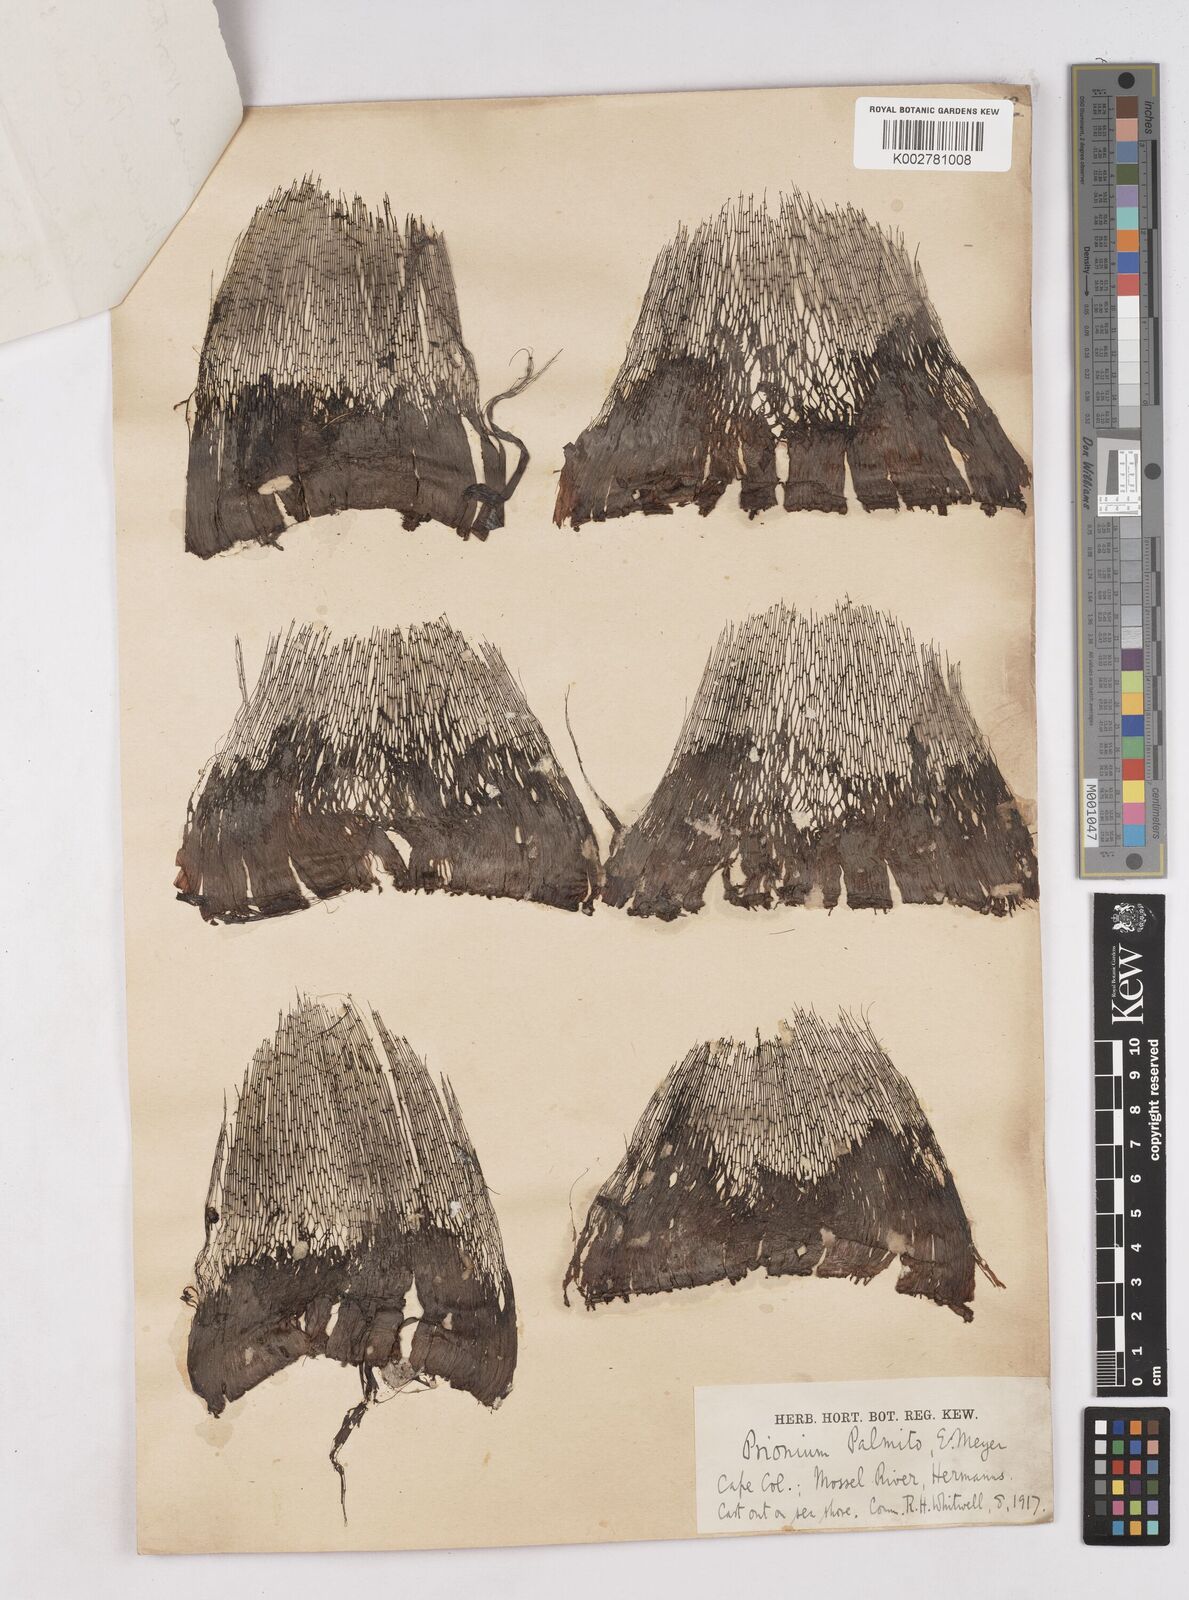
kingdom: Plantae
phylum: Tracheophyta
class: Liliopsida
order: Poales
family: Thurniaceae
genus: Prionium
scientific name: Prionium serratum
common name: Palmiet
